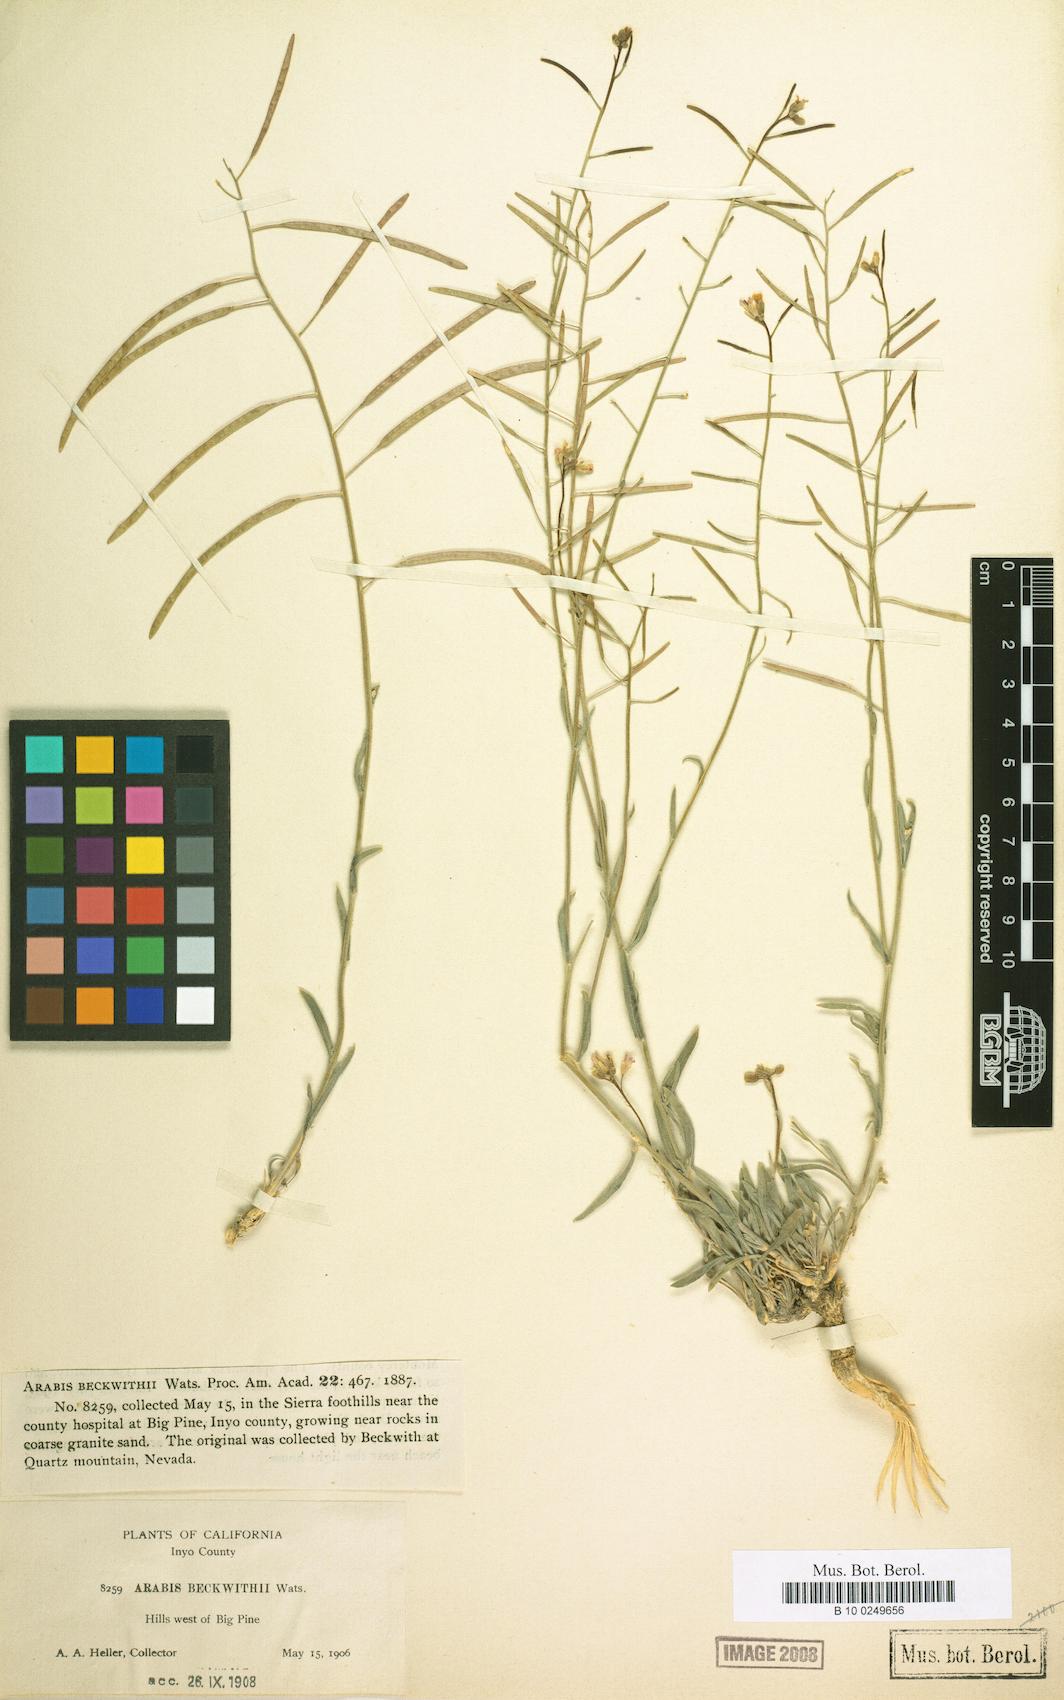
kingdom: Plantae
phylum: Tracheophyta
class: Magnoliopsida
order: Brassicales
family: Brassicaceae
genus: Boechera
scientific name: Boechera puberula
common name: Puberulent rockcress
